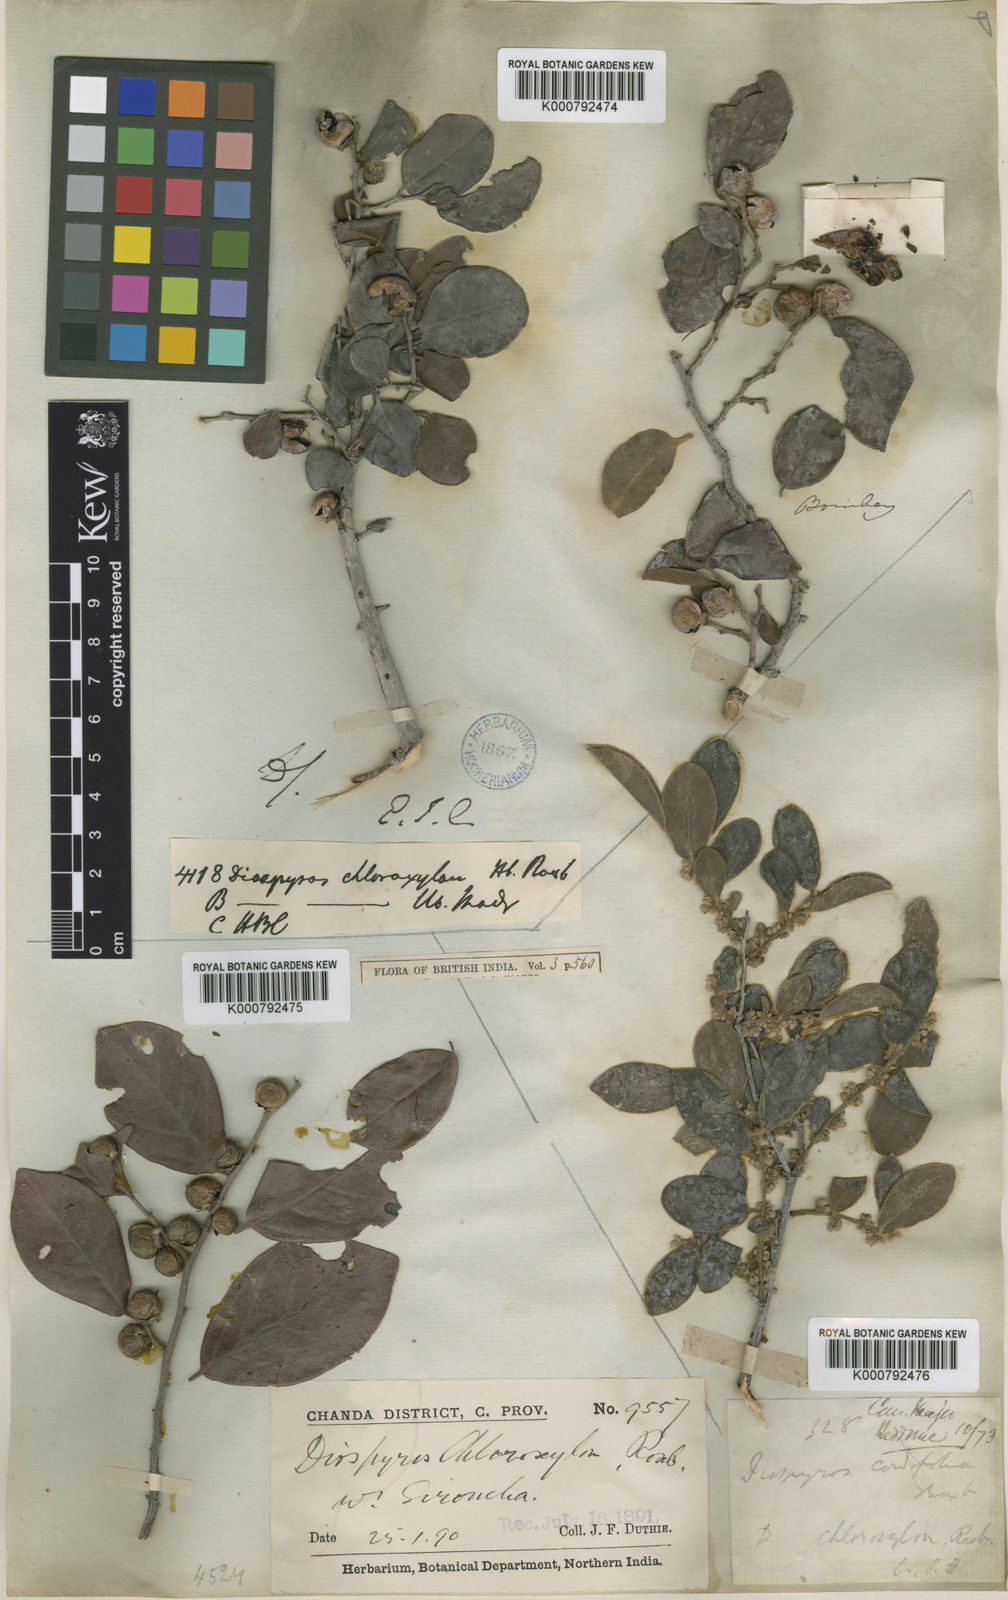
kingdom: Plantae
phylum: Tracheophyta
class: Magnoliopsida
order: Ericales
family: Ebenaceae
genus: Diospyros
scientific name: Diospyros chloroxylon
